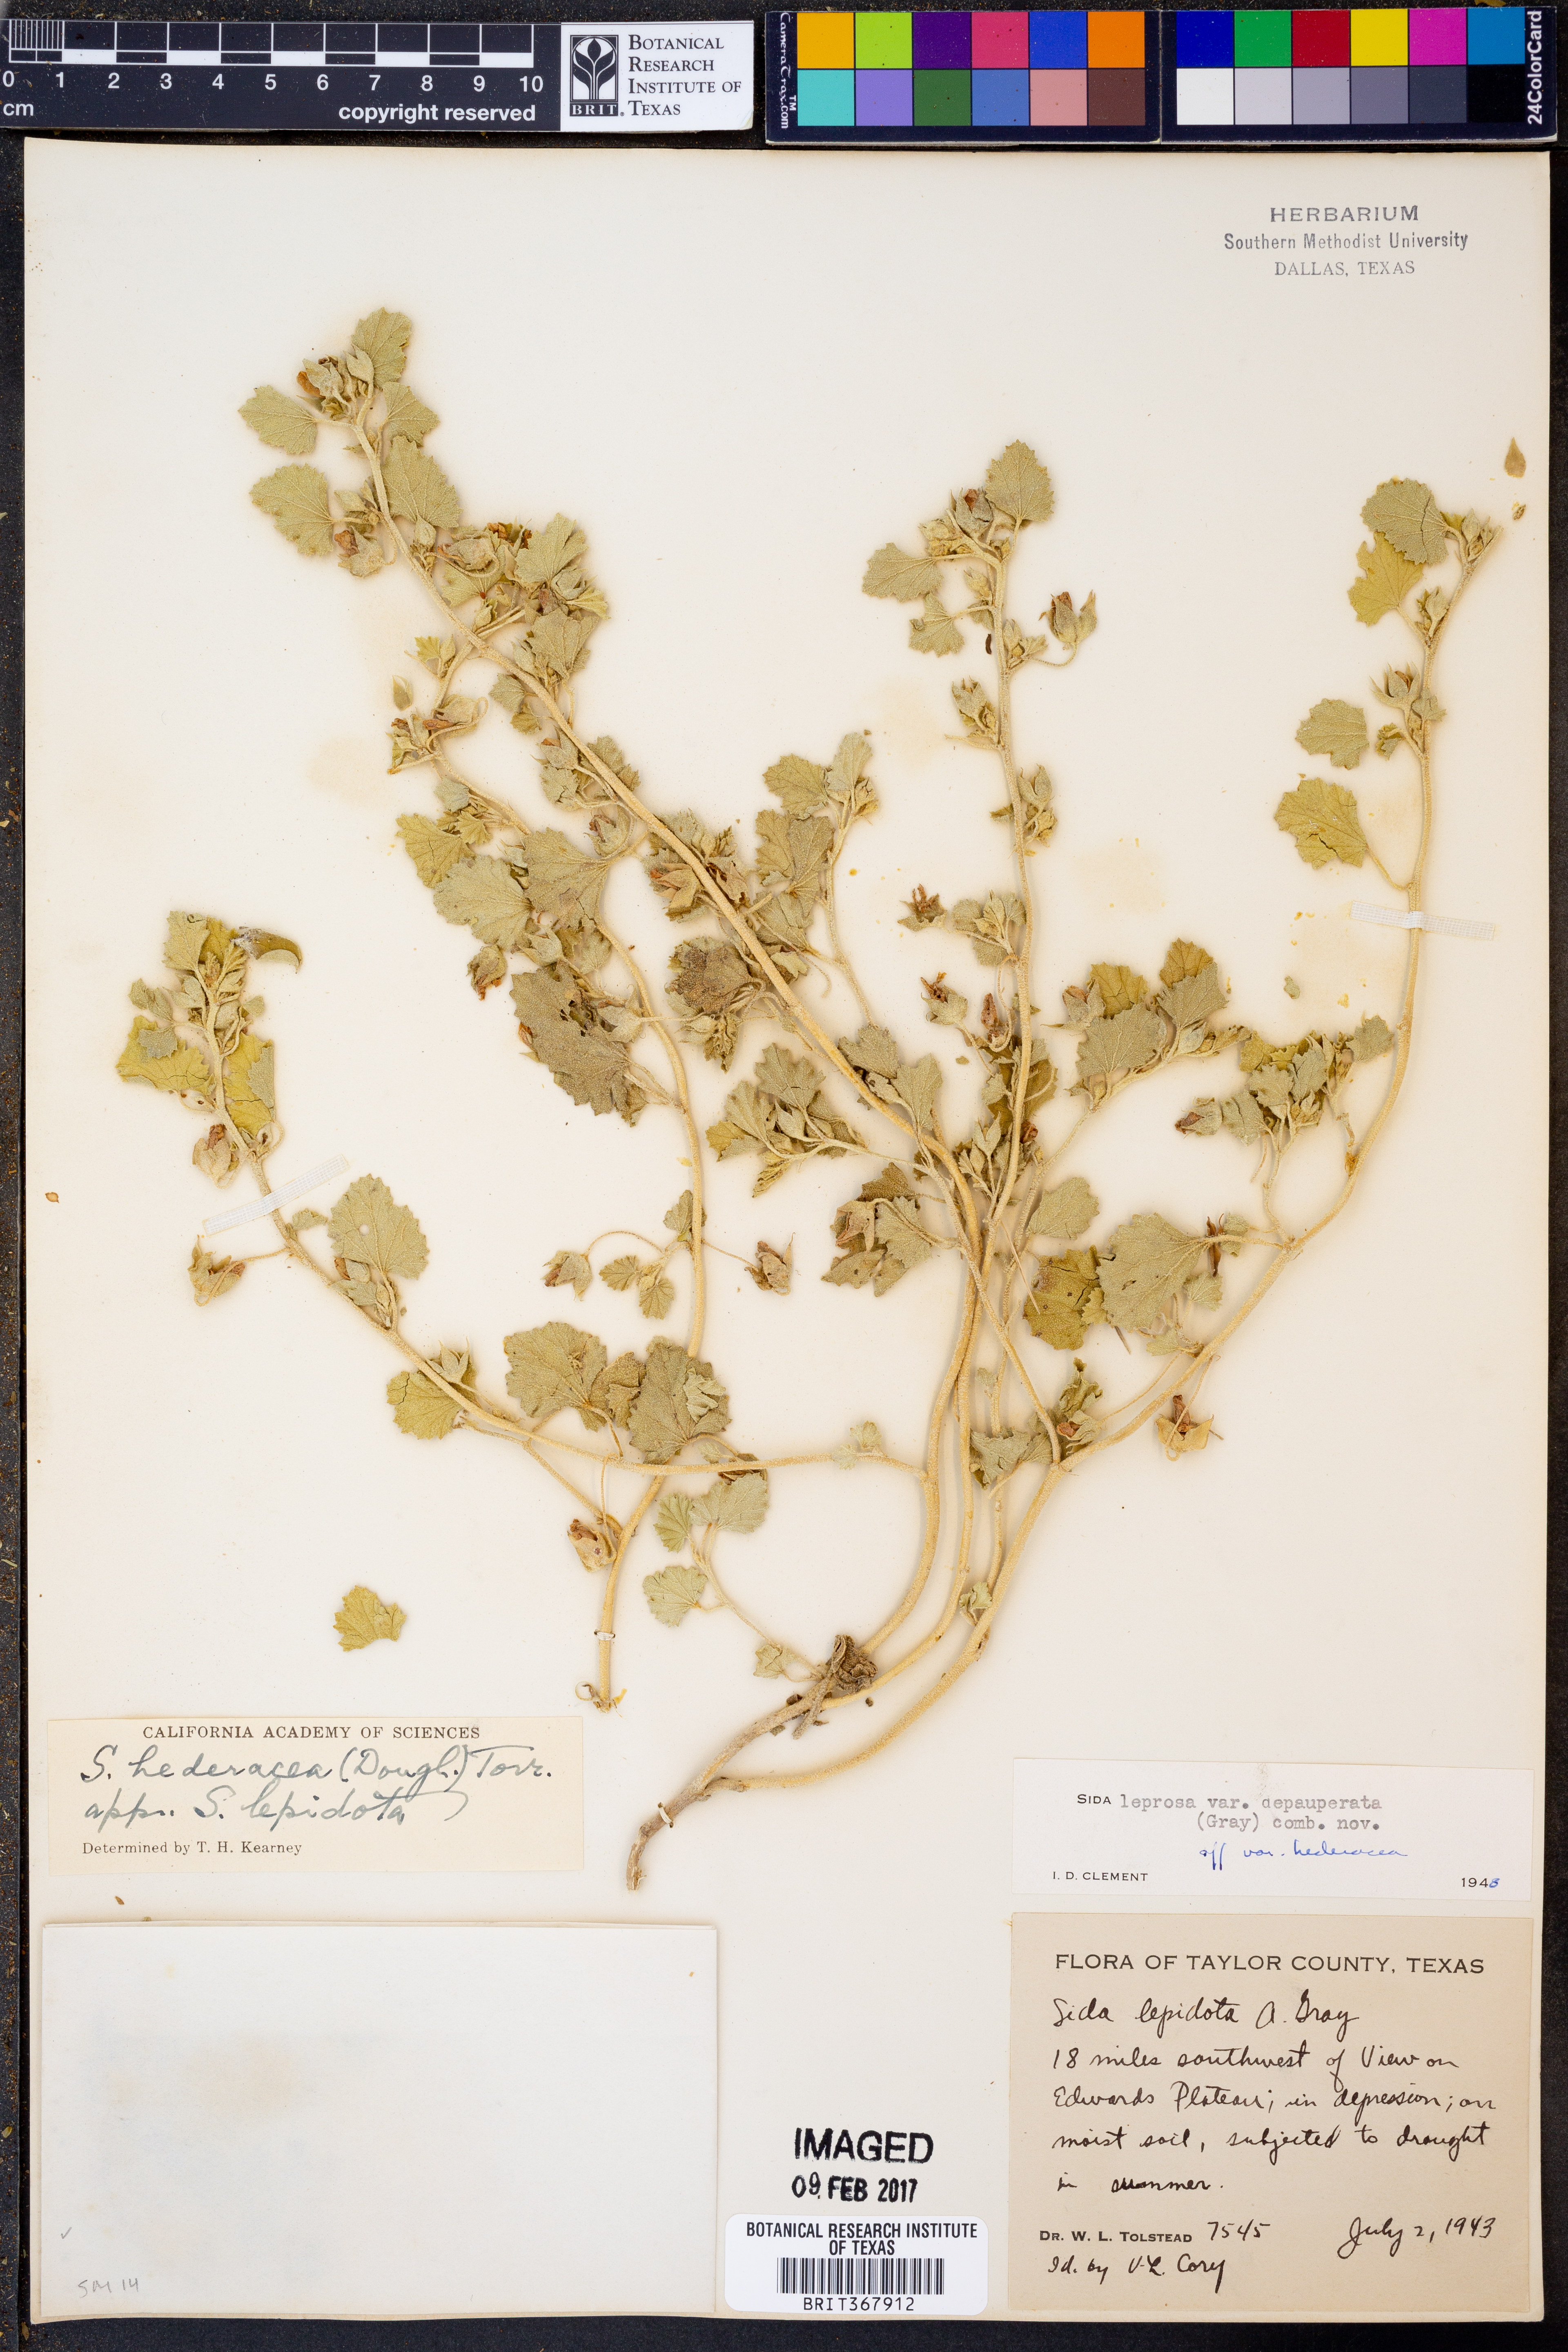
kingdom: Plantae
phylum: Tracheophyta
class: Magnoliopsida
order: Malvales
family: Malvaceae
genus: Malvella
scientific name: Malvella leprosa
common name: Alkali-mallow
